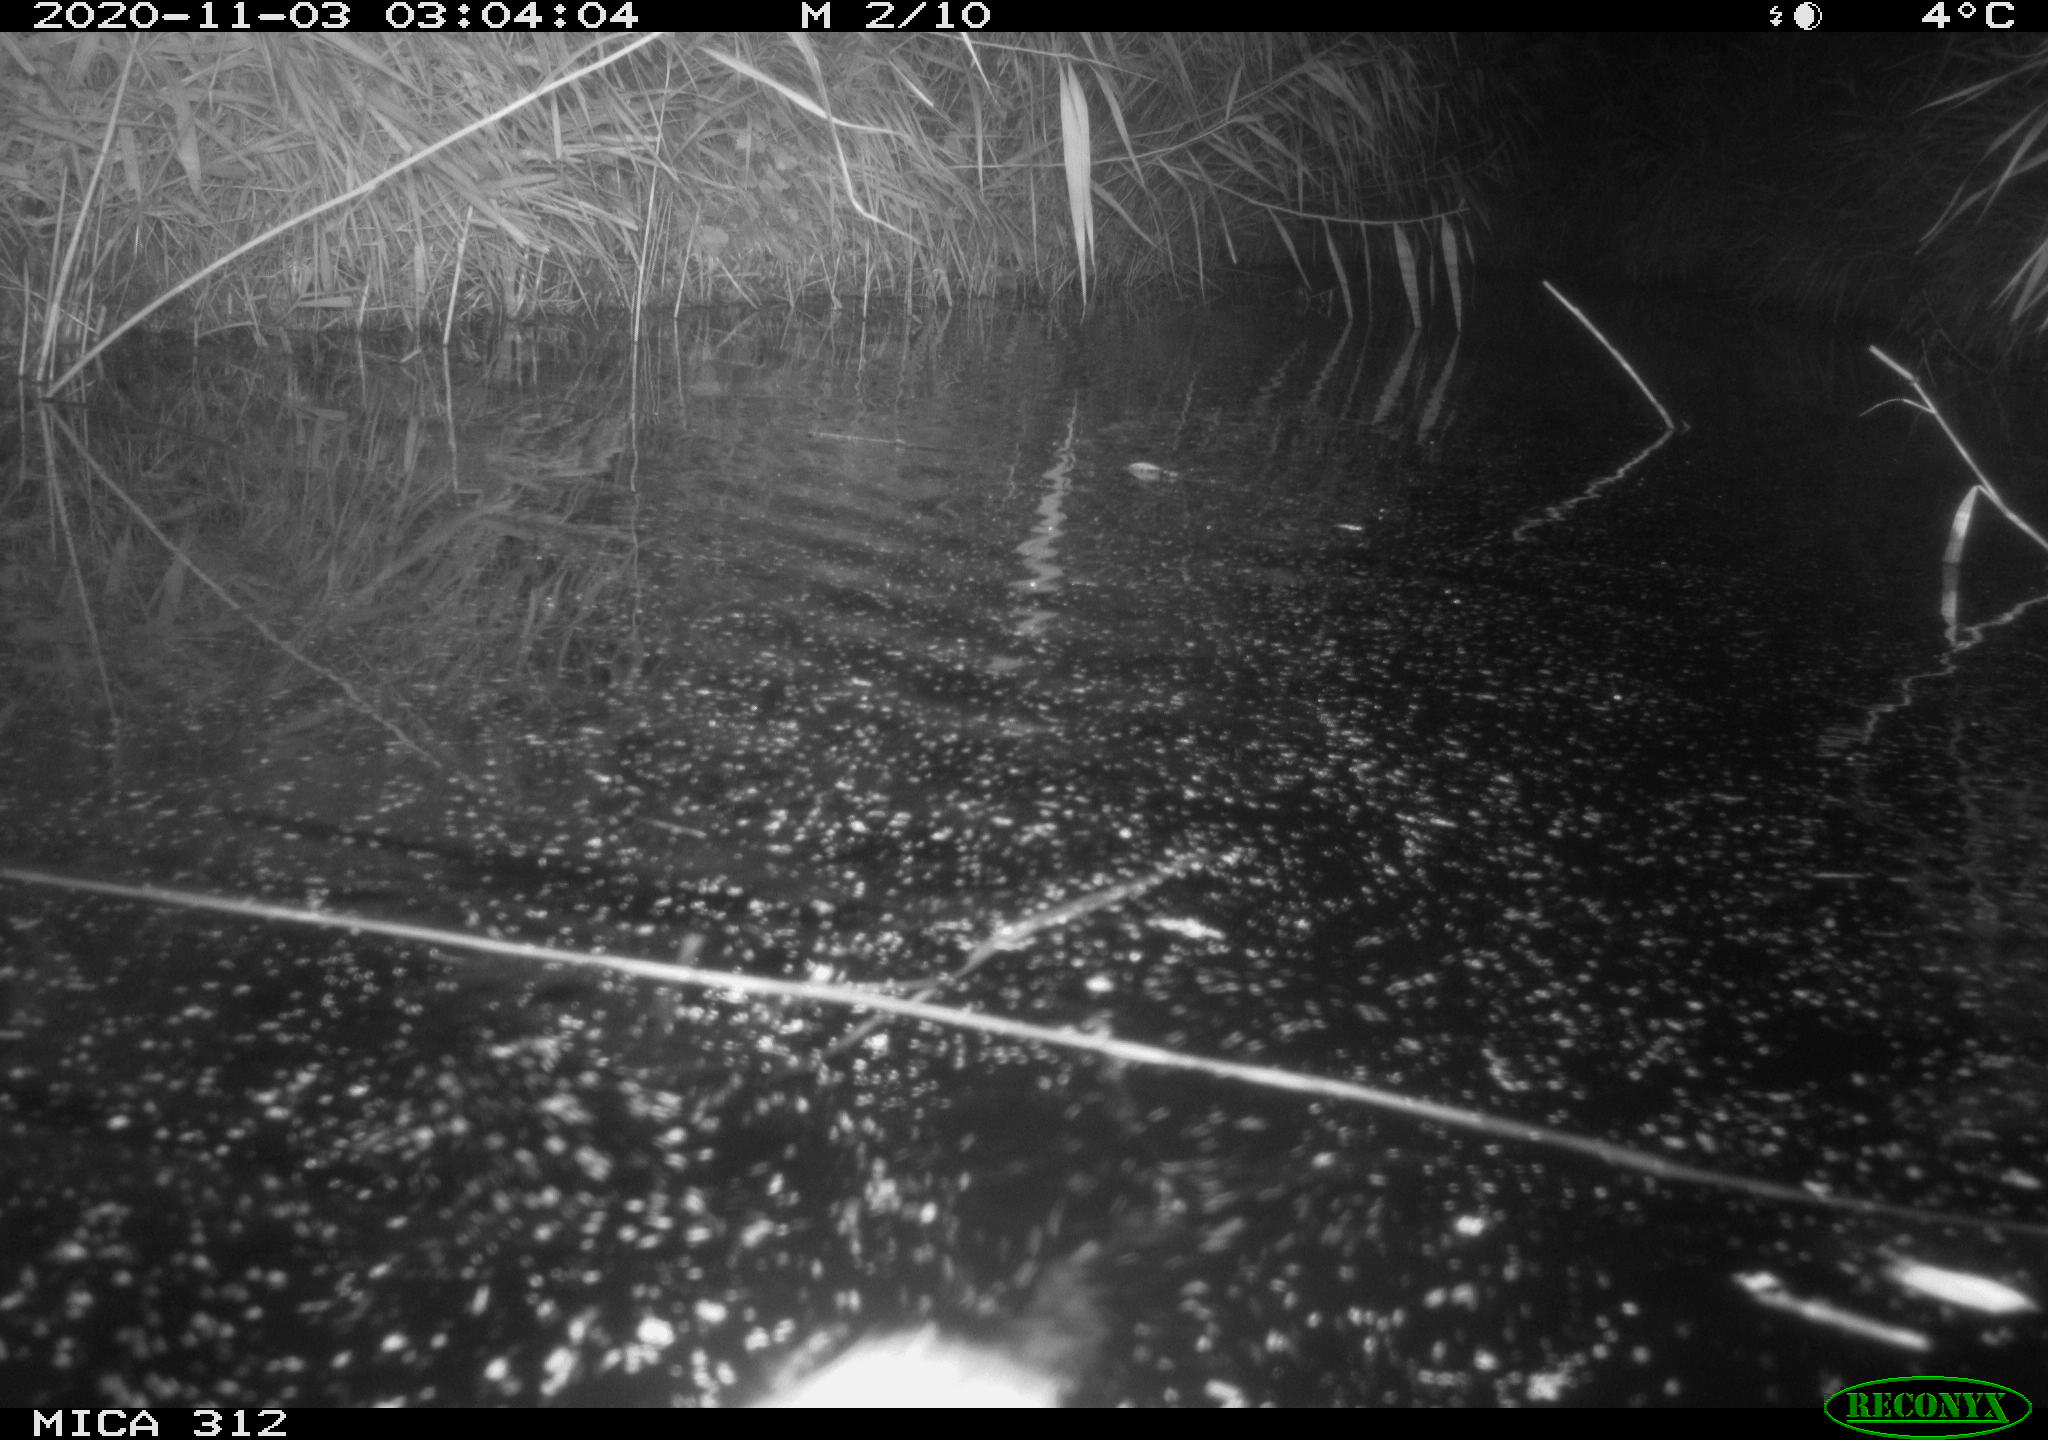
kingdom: Animalia
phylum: Chordata
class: Mammalia
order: Rodentia
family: Cricetidae
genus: Ondatra
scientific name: Ondatra zibethicus
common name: Muskrat
